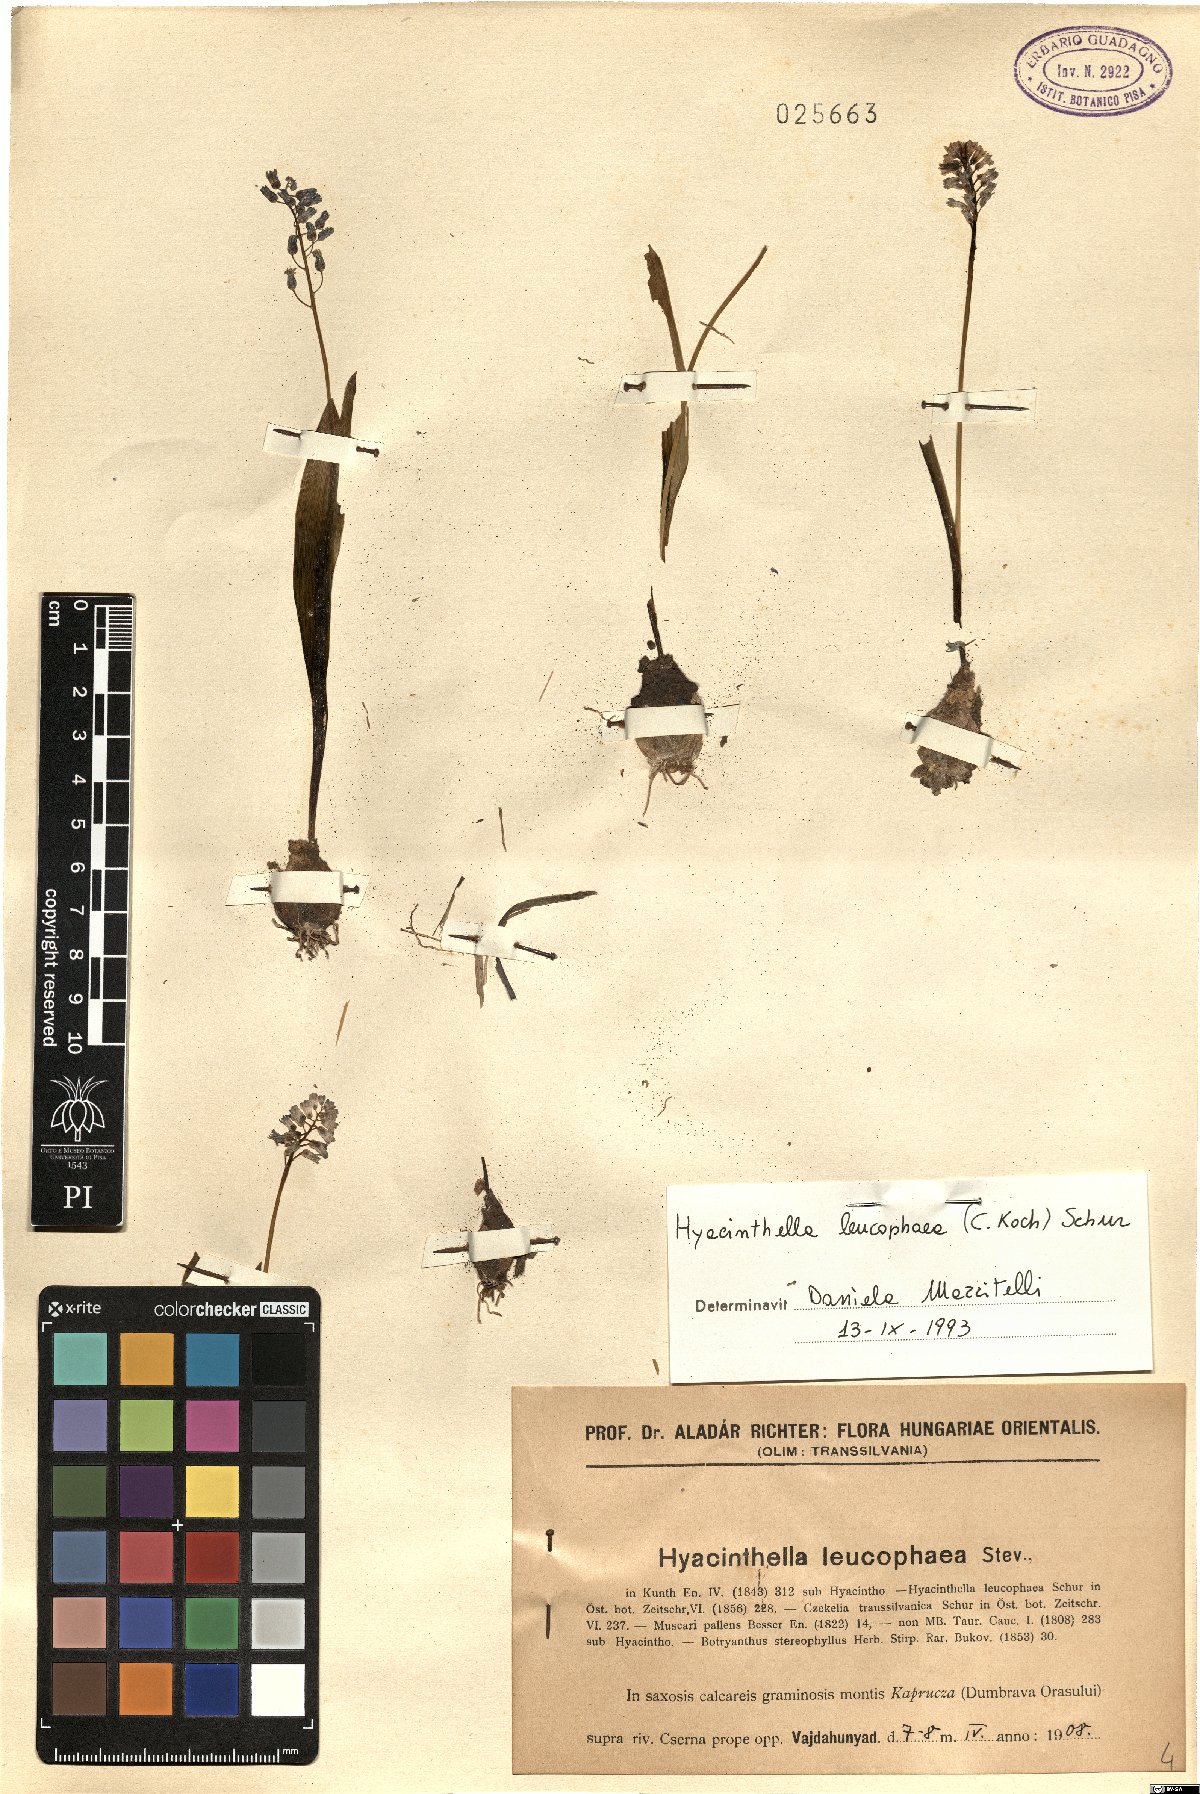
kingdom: Plantae
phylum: Tracheophyta
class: Liliopsida
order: Asparagales
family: Asparagaceae
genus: Hyacinthella
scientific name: Hyacinthella leucophaea
